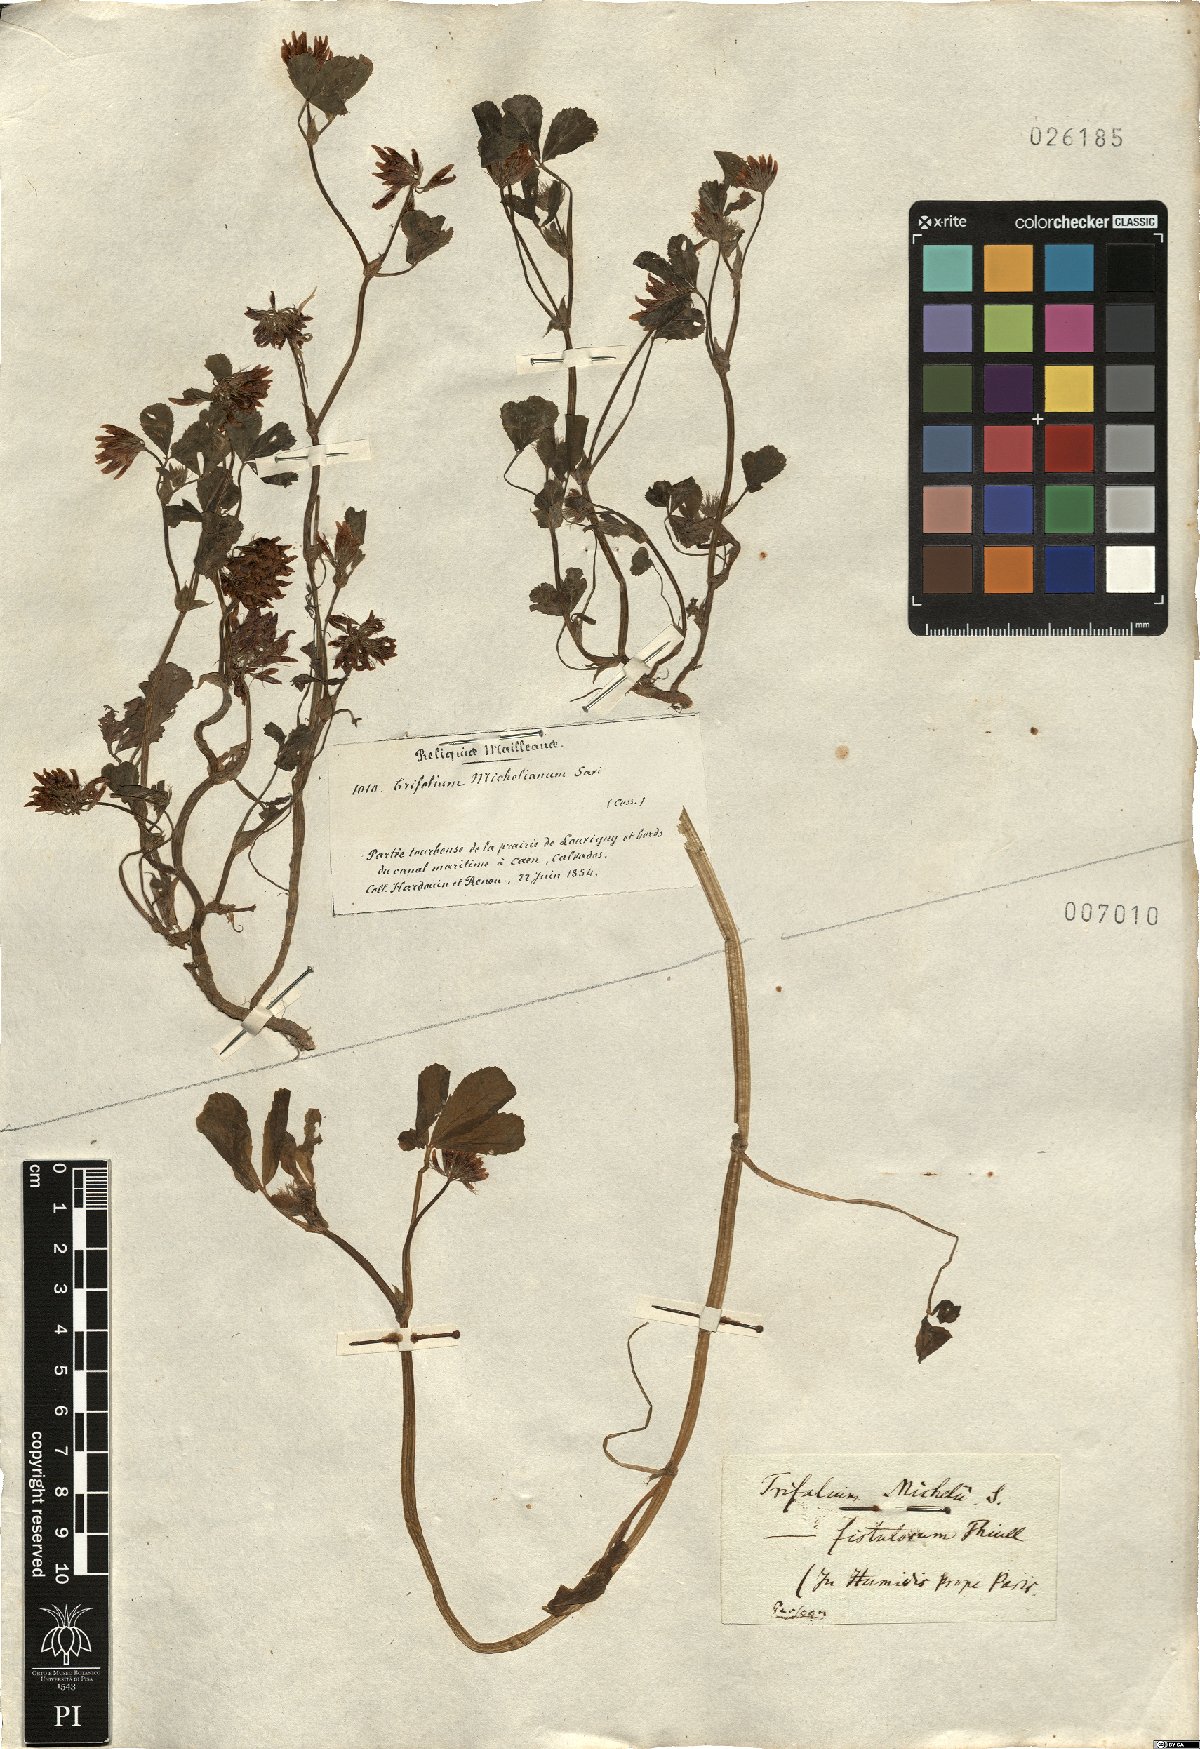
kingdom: Plantae
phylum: Tracheophyta
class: Magnoliopsida
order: Fabales
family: Fabaceae
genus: Trifolium
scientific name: Trifolium michelianum
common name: Bigflower clover
